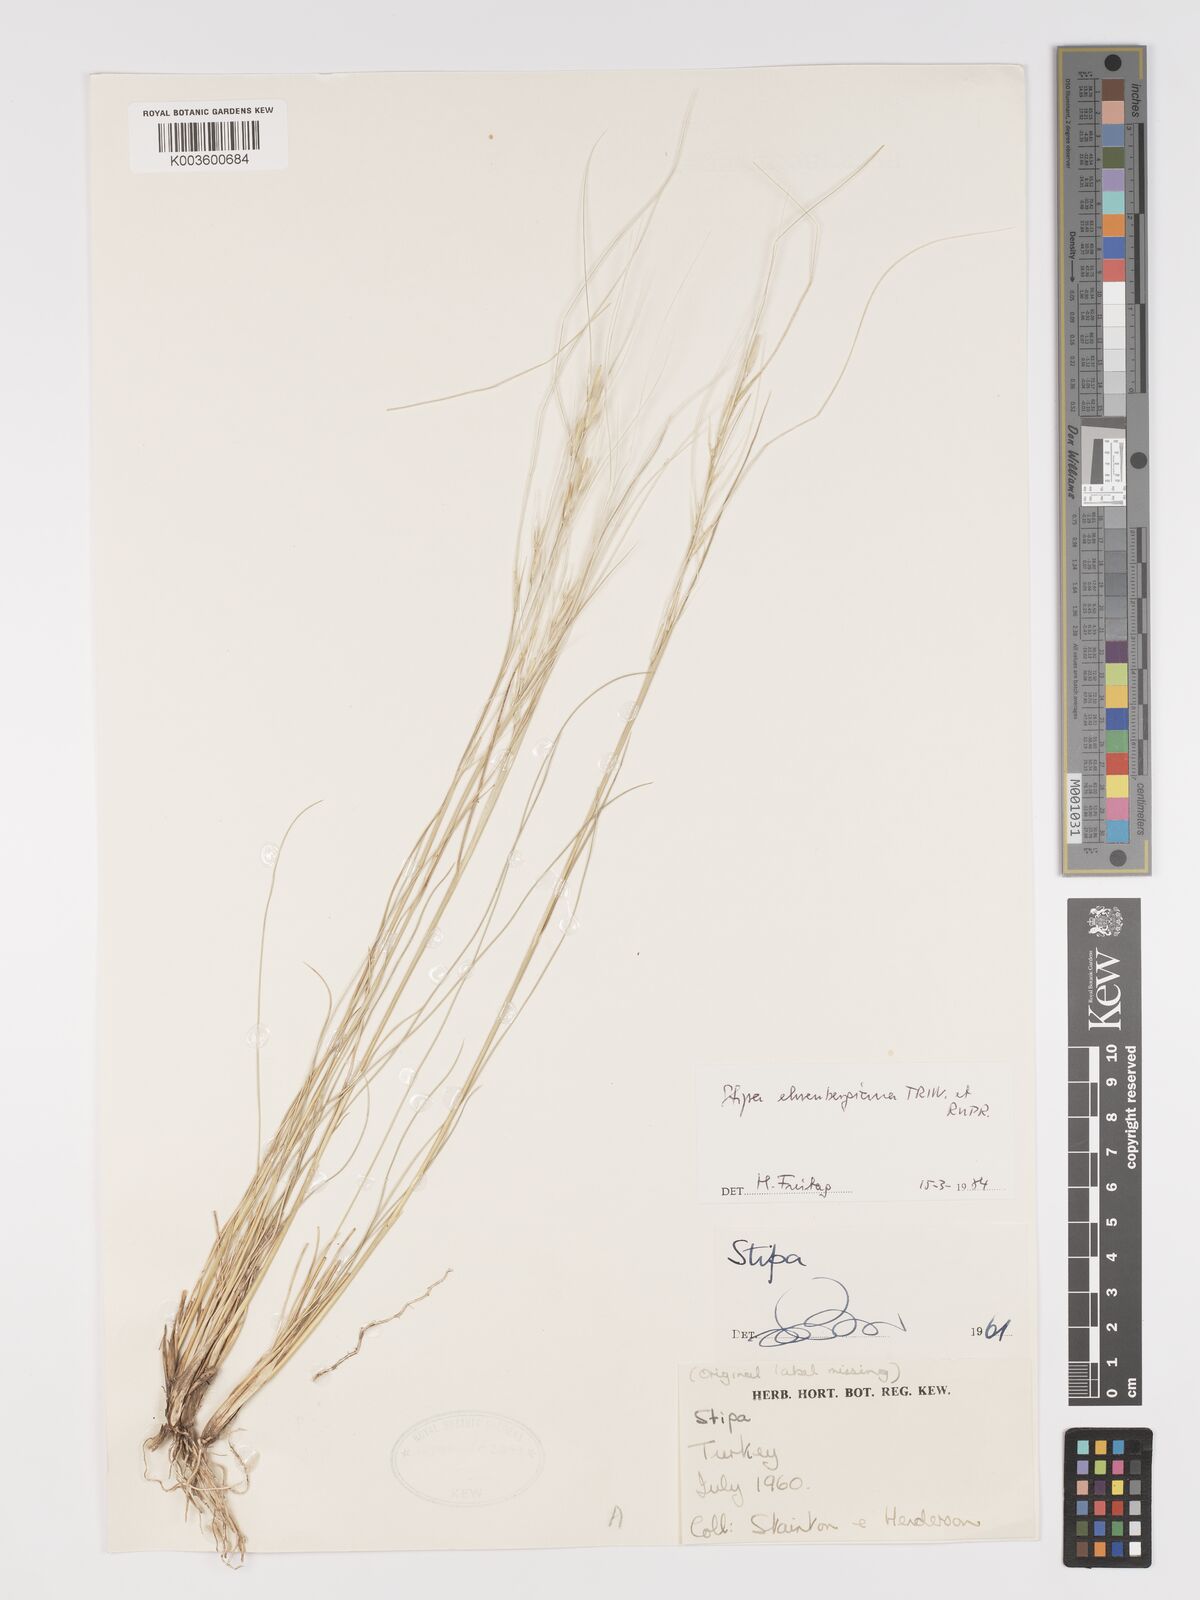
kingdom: Plantae
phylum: Tracheophyta
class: Liliopsida
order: Poales
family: Poaceae
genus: Stipa
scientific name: Stipa ehrenbergiana
